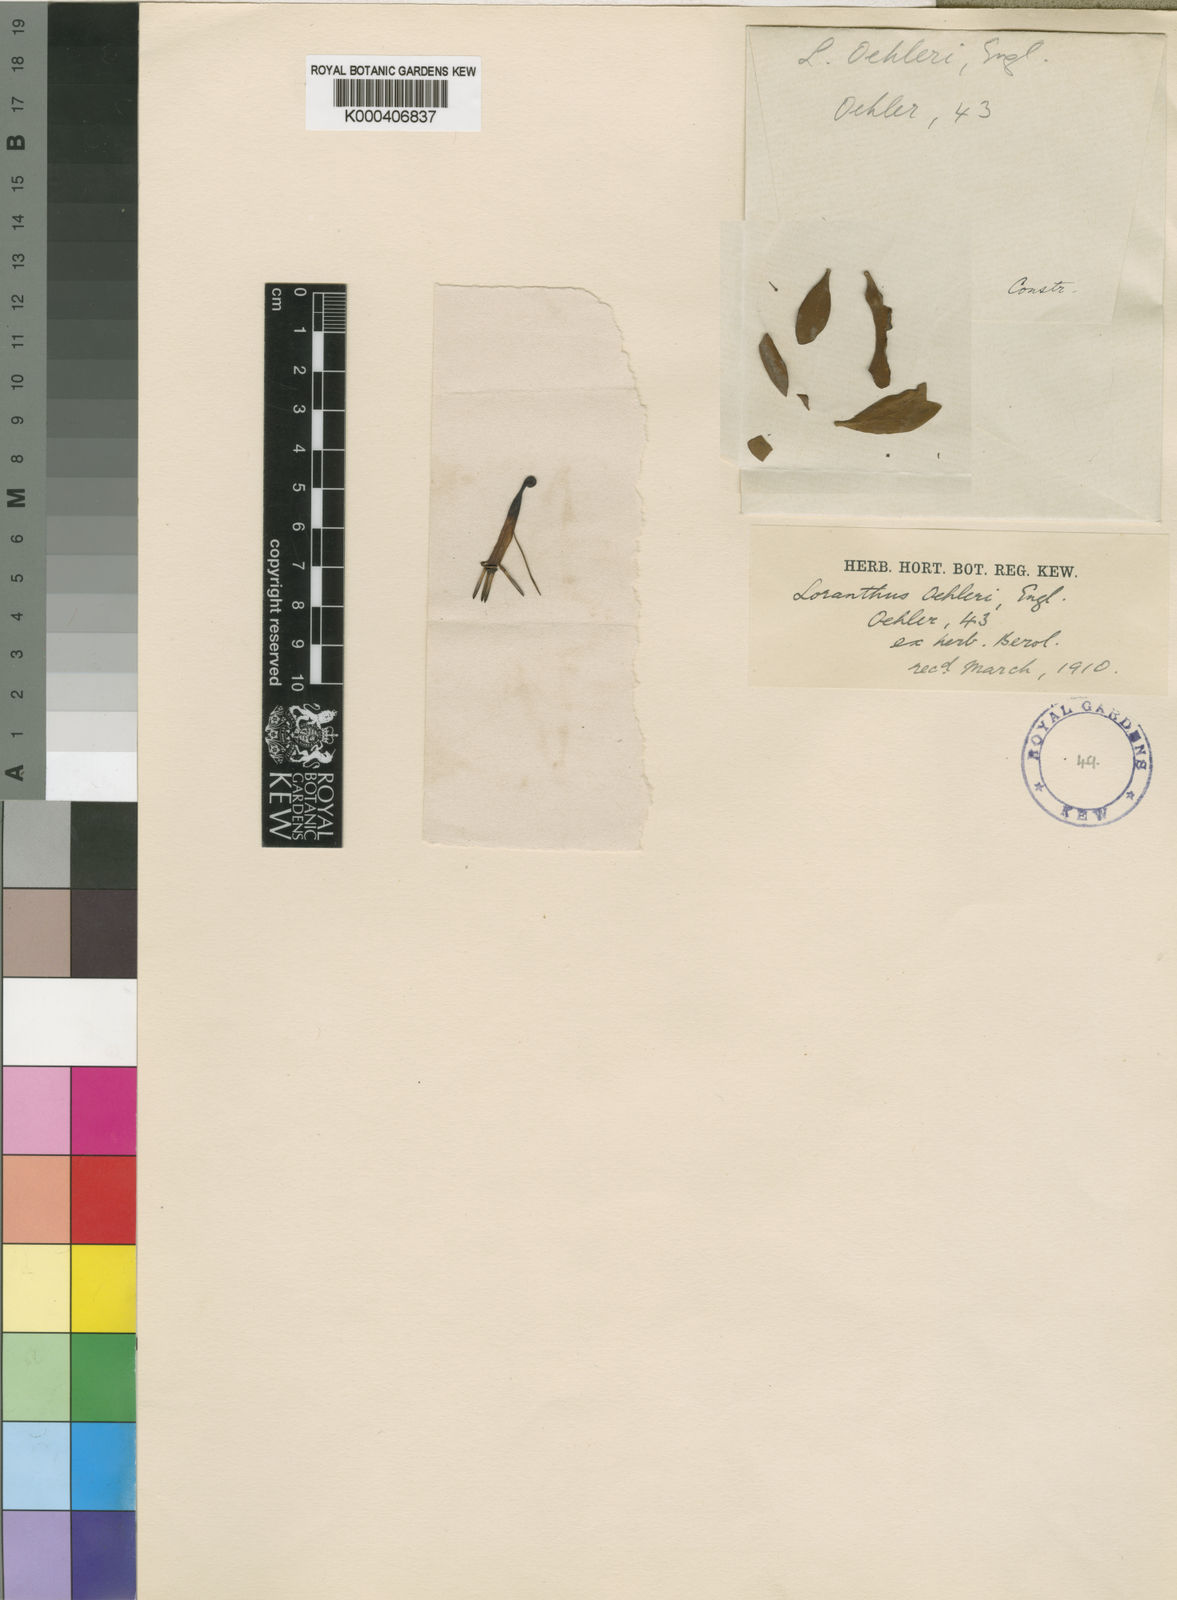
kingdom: Plantae
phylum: Tracheophyta
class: Magnoliopsida
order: Santalales
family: Loranthaceae
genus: Agelanthus
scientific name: Agelanthus oehleri
